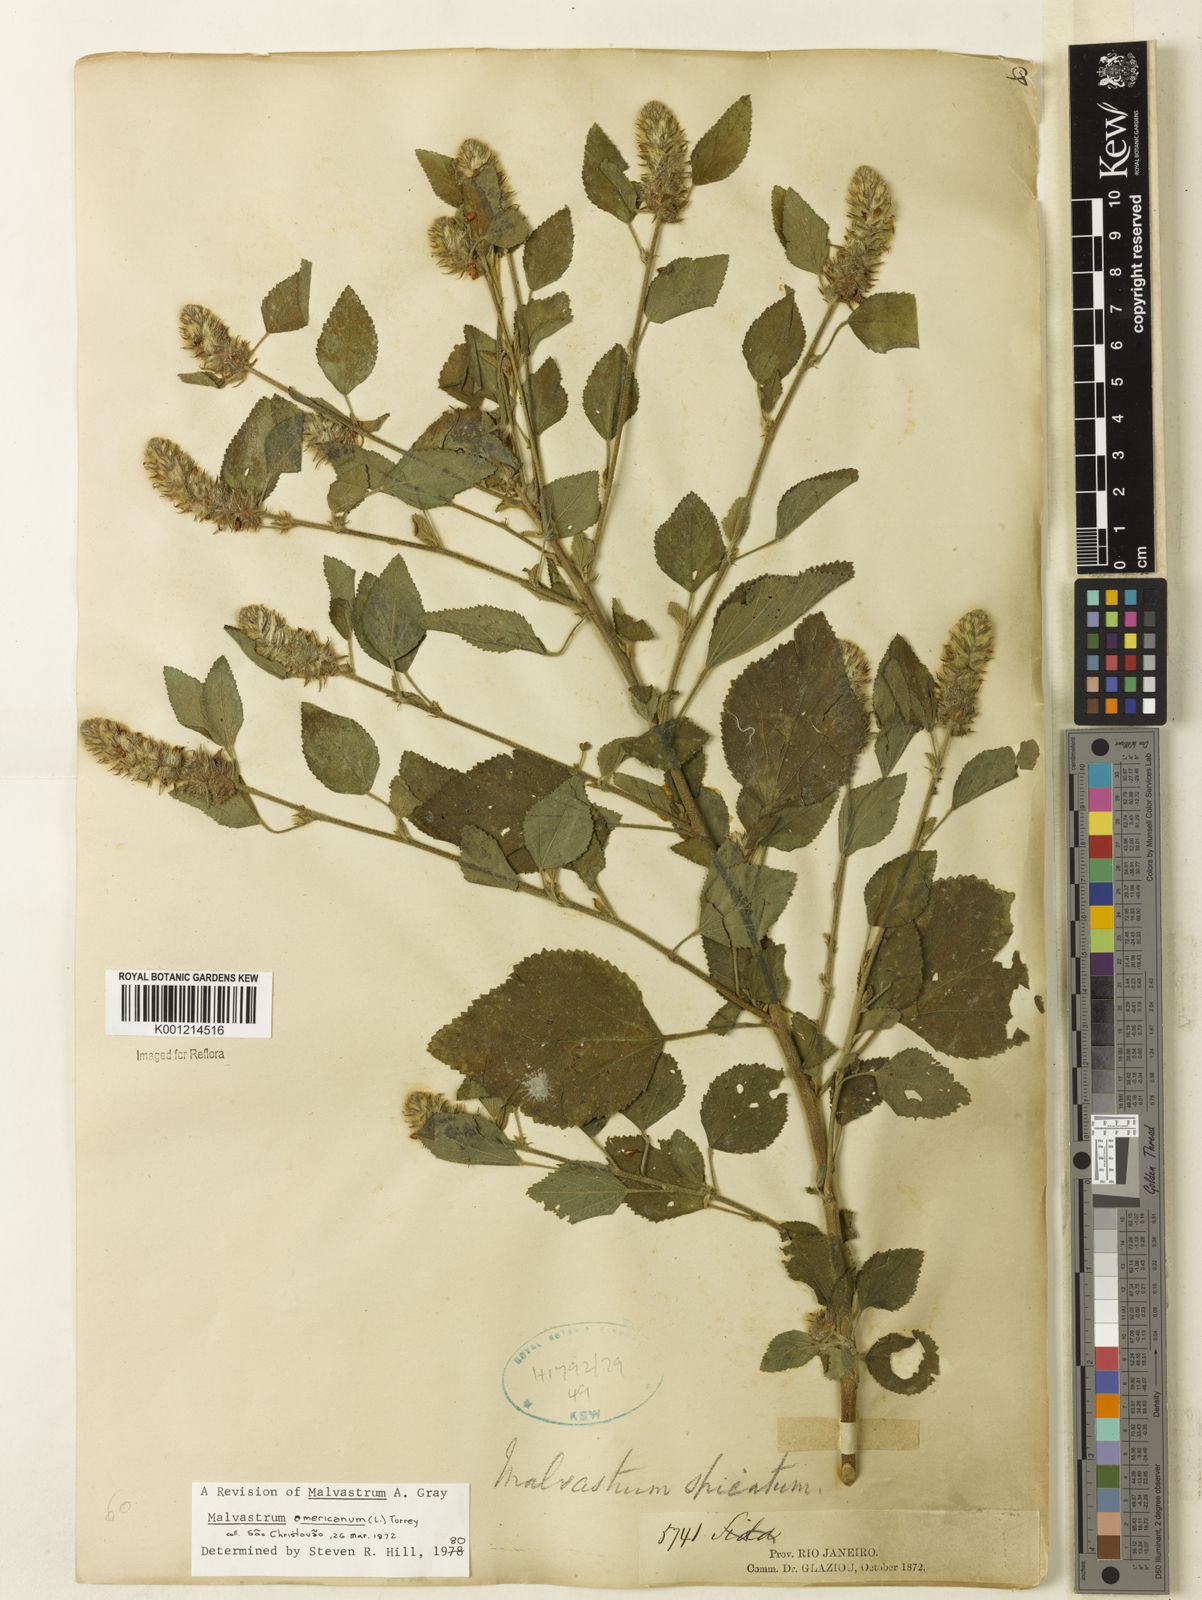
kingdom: Plantae
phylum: Tracheophyta
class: Magnoliopsida
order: Malvales
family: Malvaceae
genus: Malvastrum
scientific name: Malvastrum americanum
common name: Spiked malvastrum
